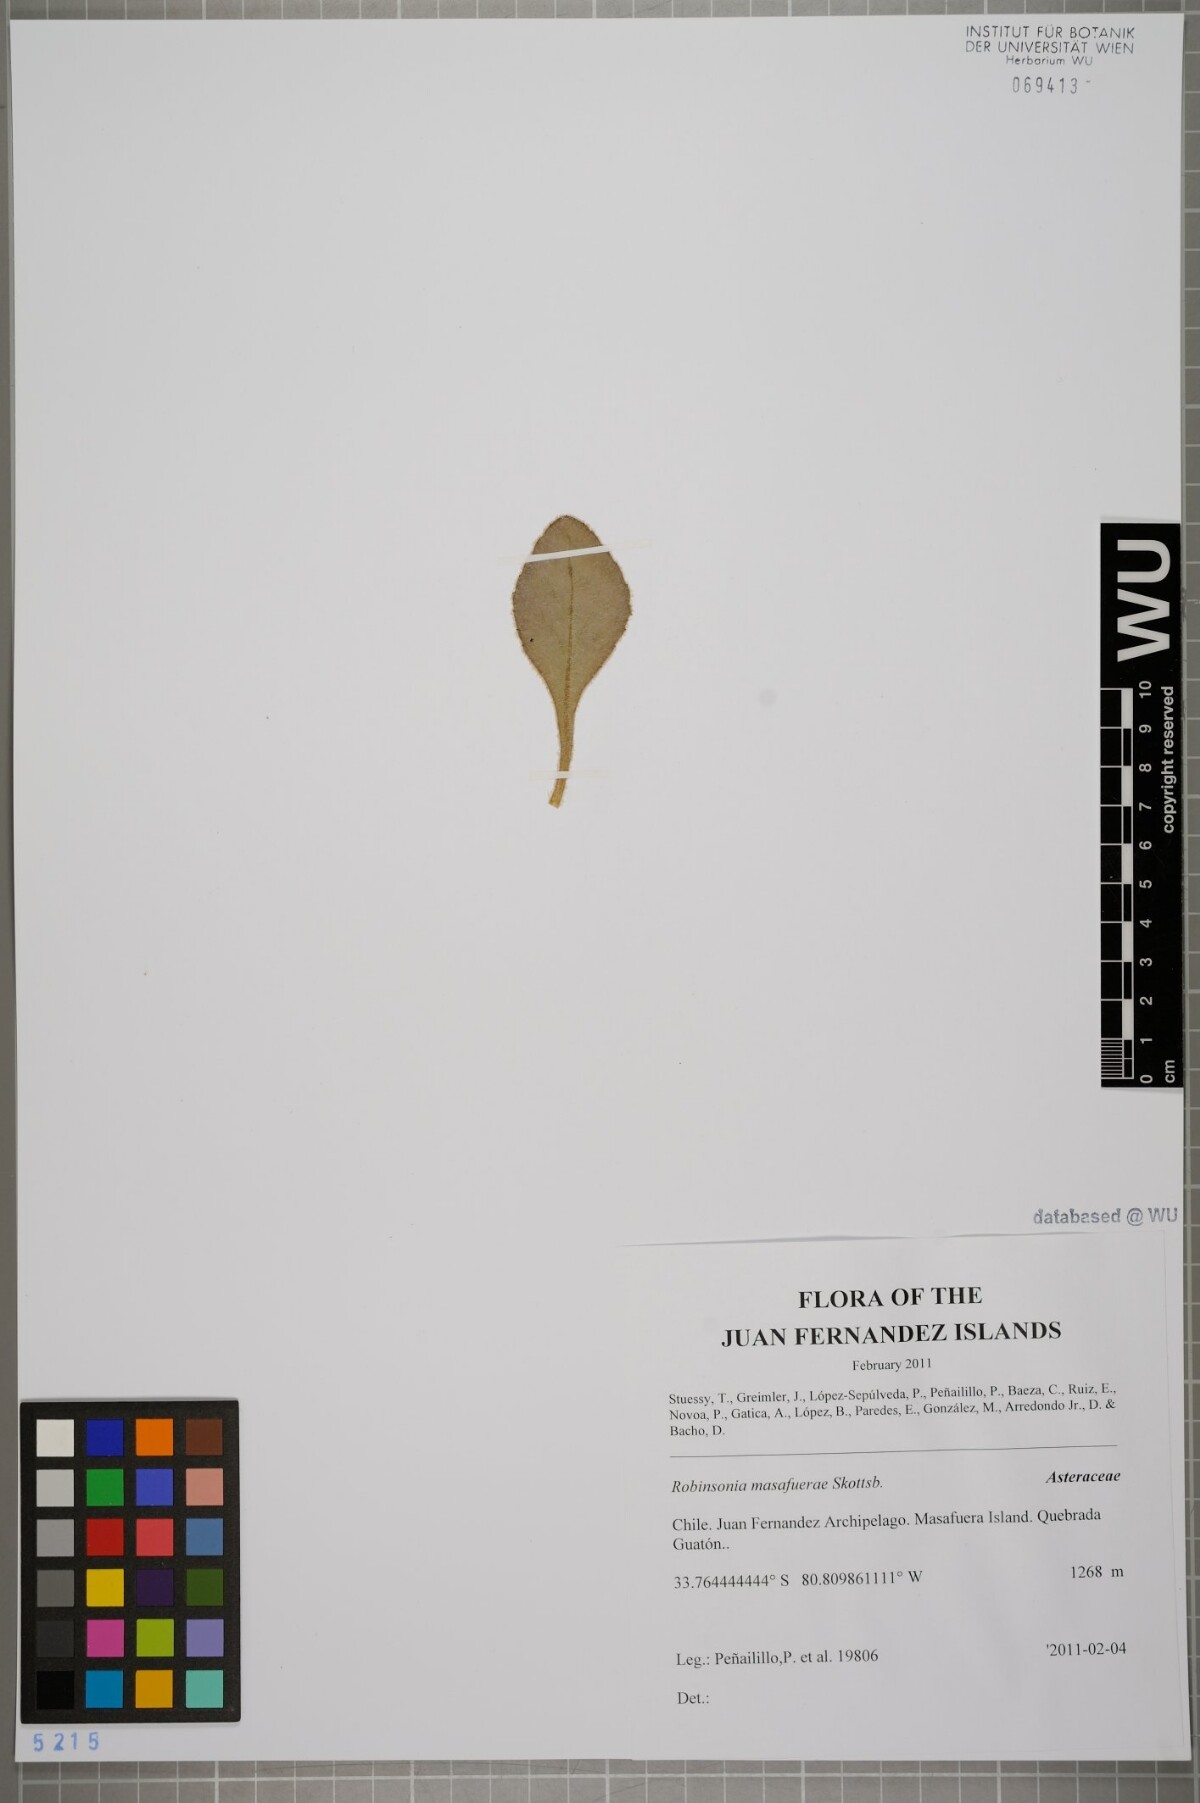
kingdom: Plantae
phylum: Tracheophyta
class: Magnoliopsida
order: Asterales
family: Asteraceae
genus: Robinsonia
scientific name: Robinsonia masafuerae
